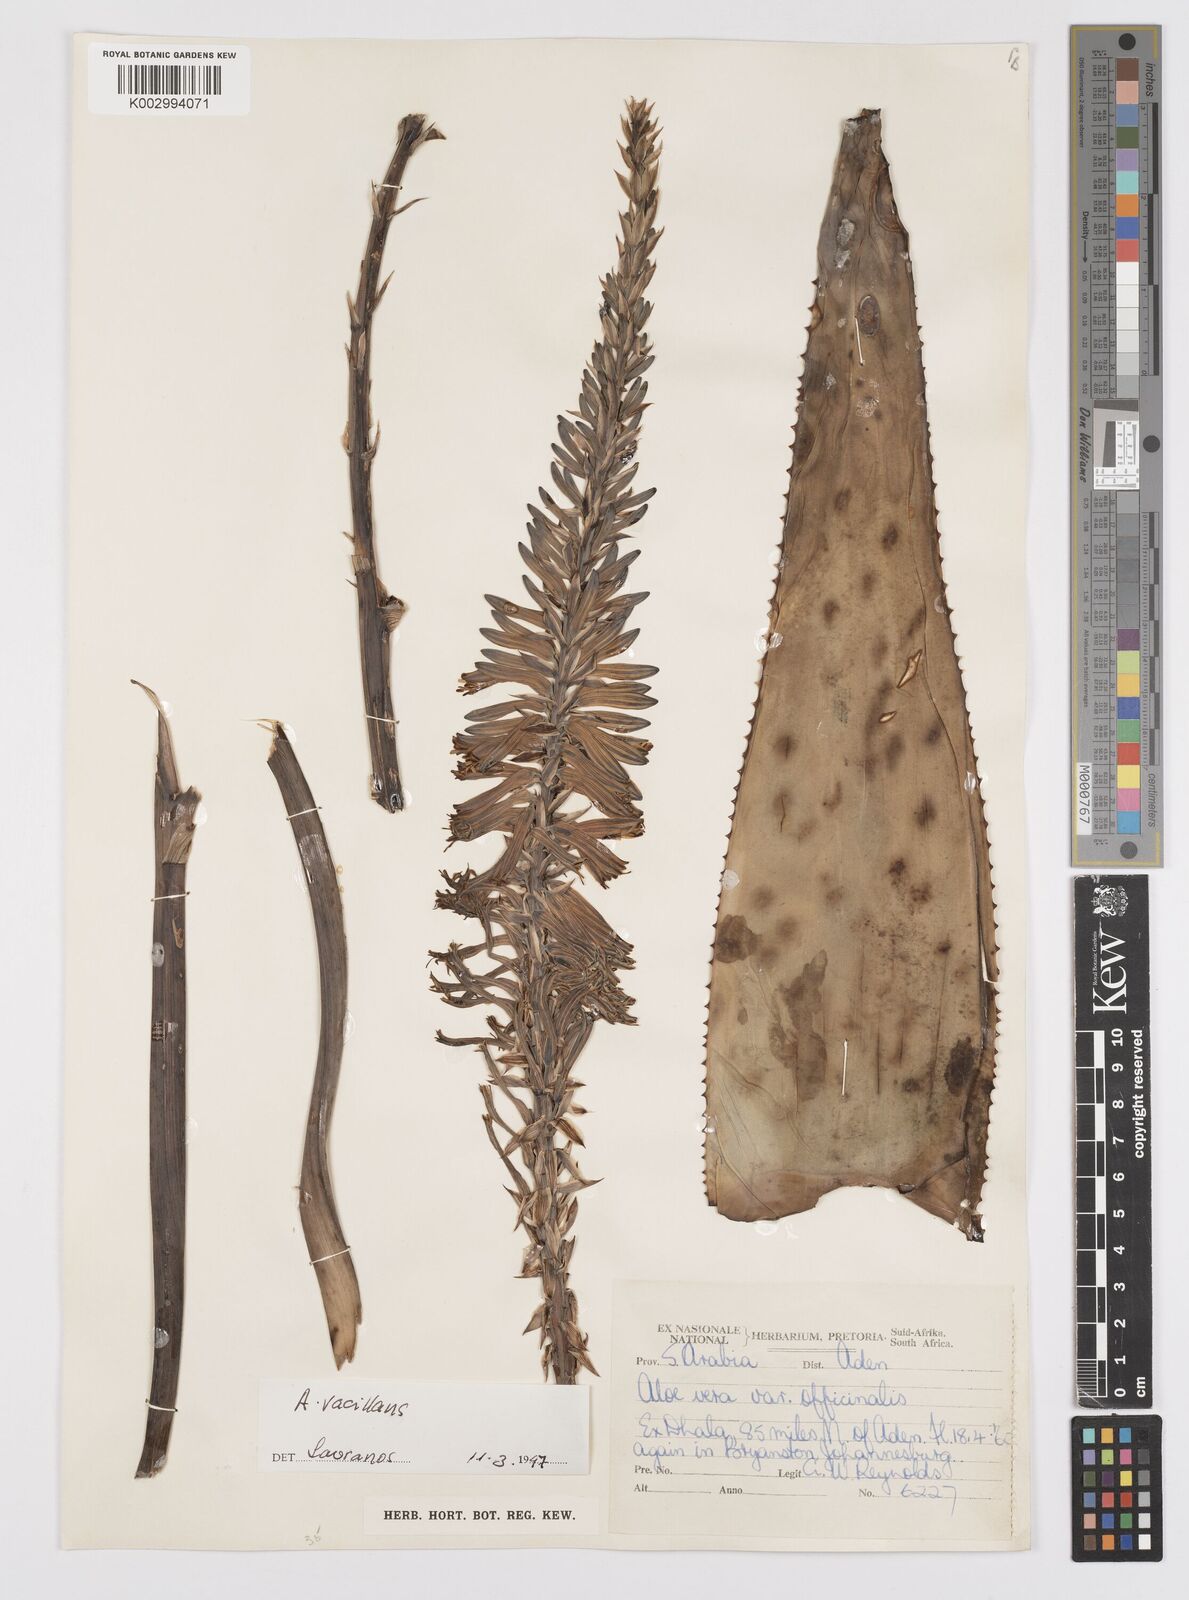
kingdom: Plantae
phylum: Tracheophyta
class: Liliopsida
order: Asparagales
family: Asphodelaceae
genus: Aloe
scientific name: Aloe officinalis
